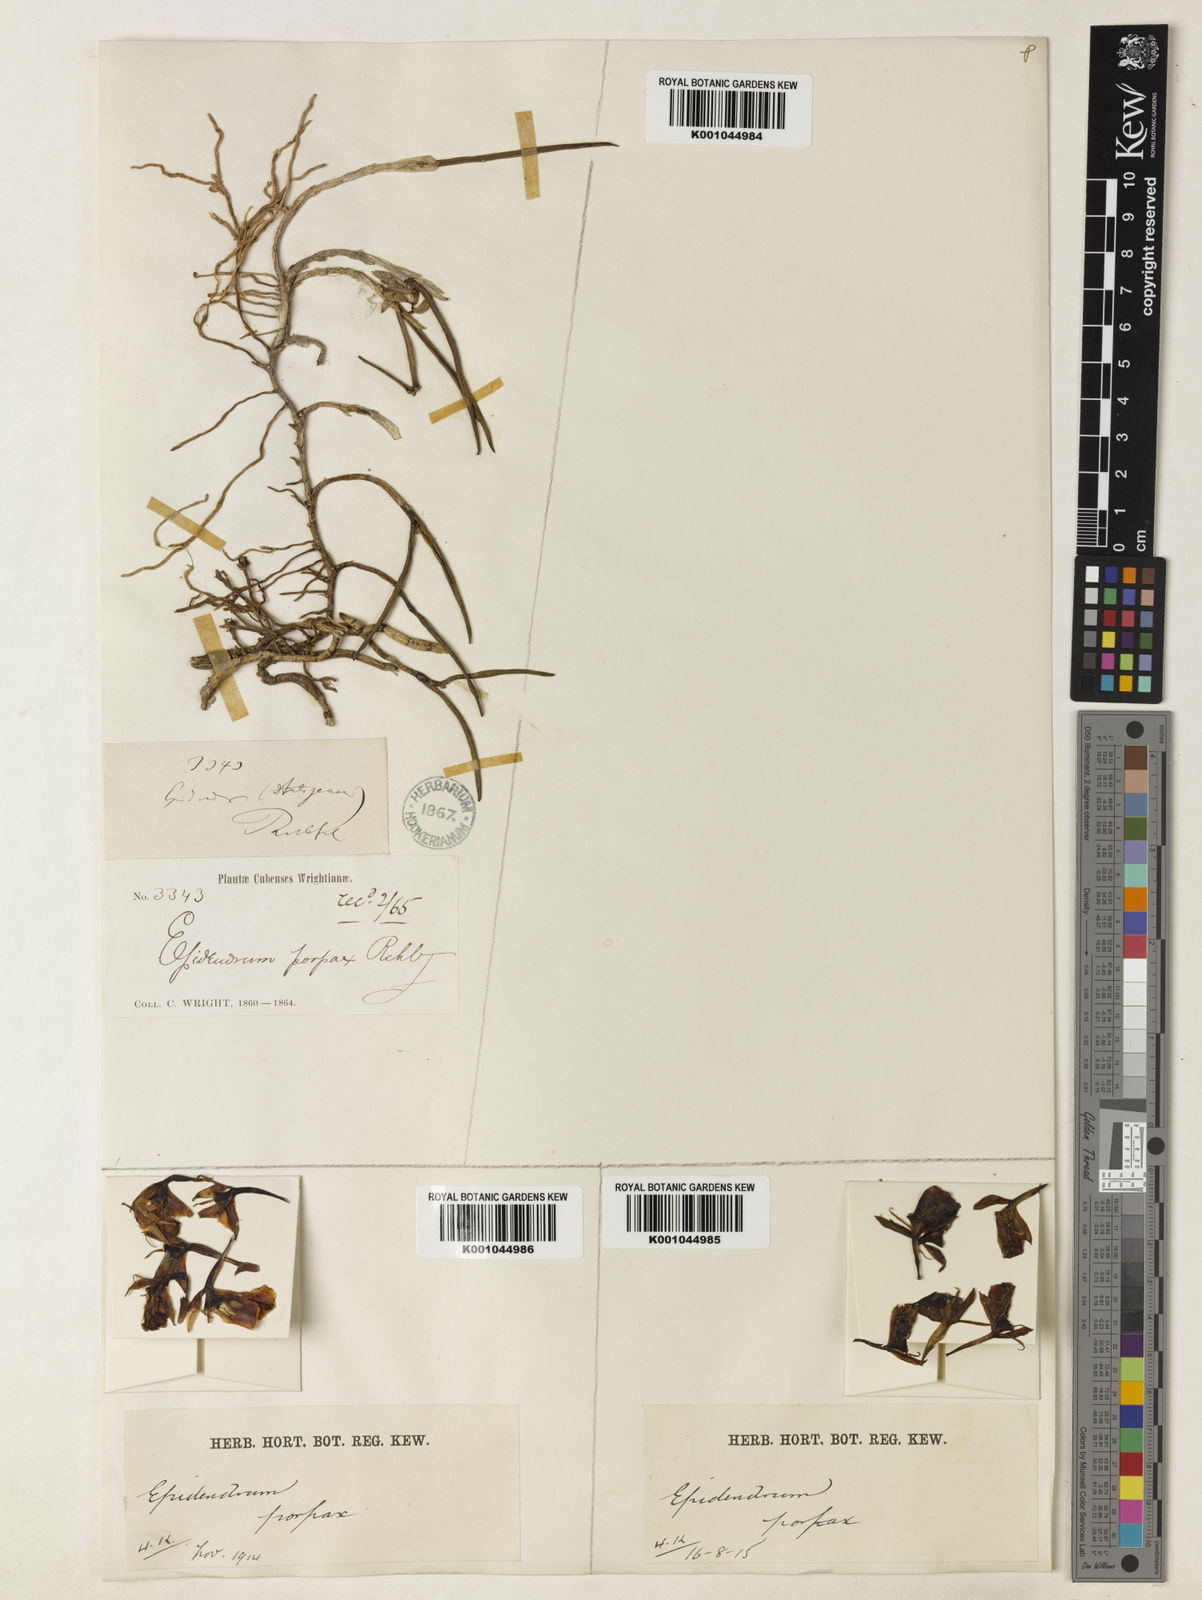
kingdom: Plantae
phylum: Tracheophyta
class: Liliopsida
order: Asparagales
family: Orchidaceae
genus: Epidendrum
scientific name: Epidendrum neoporpax
